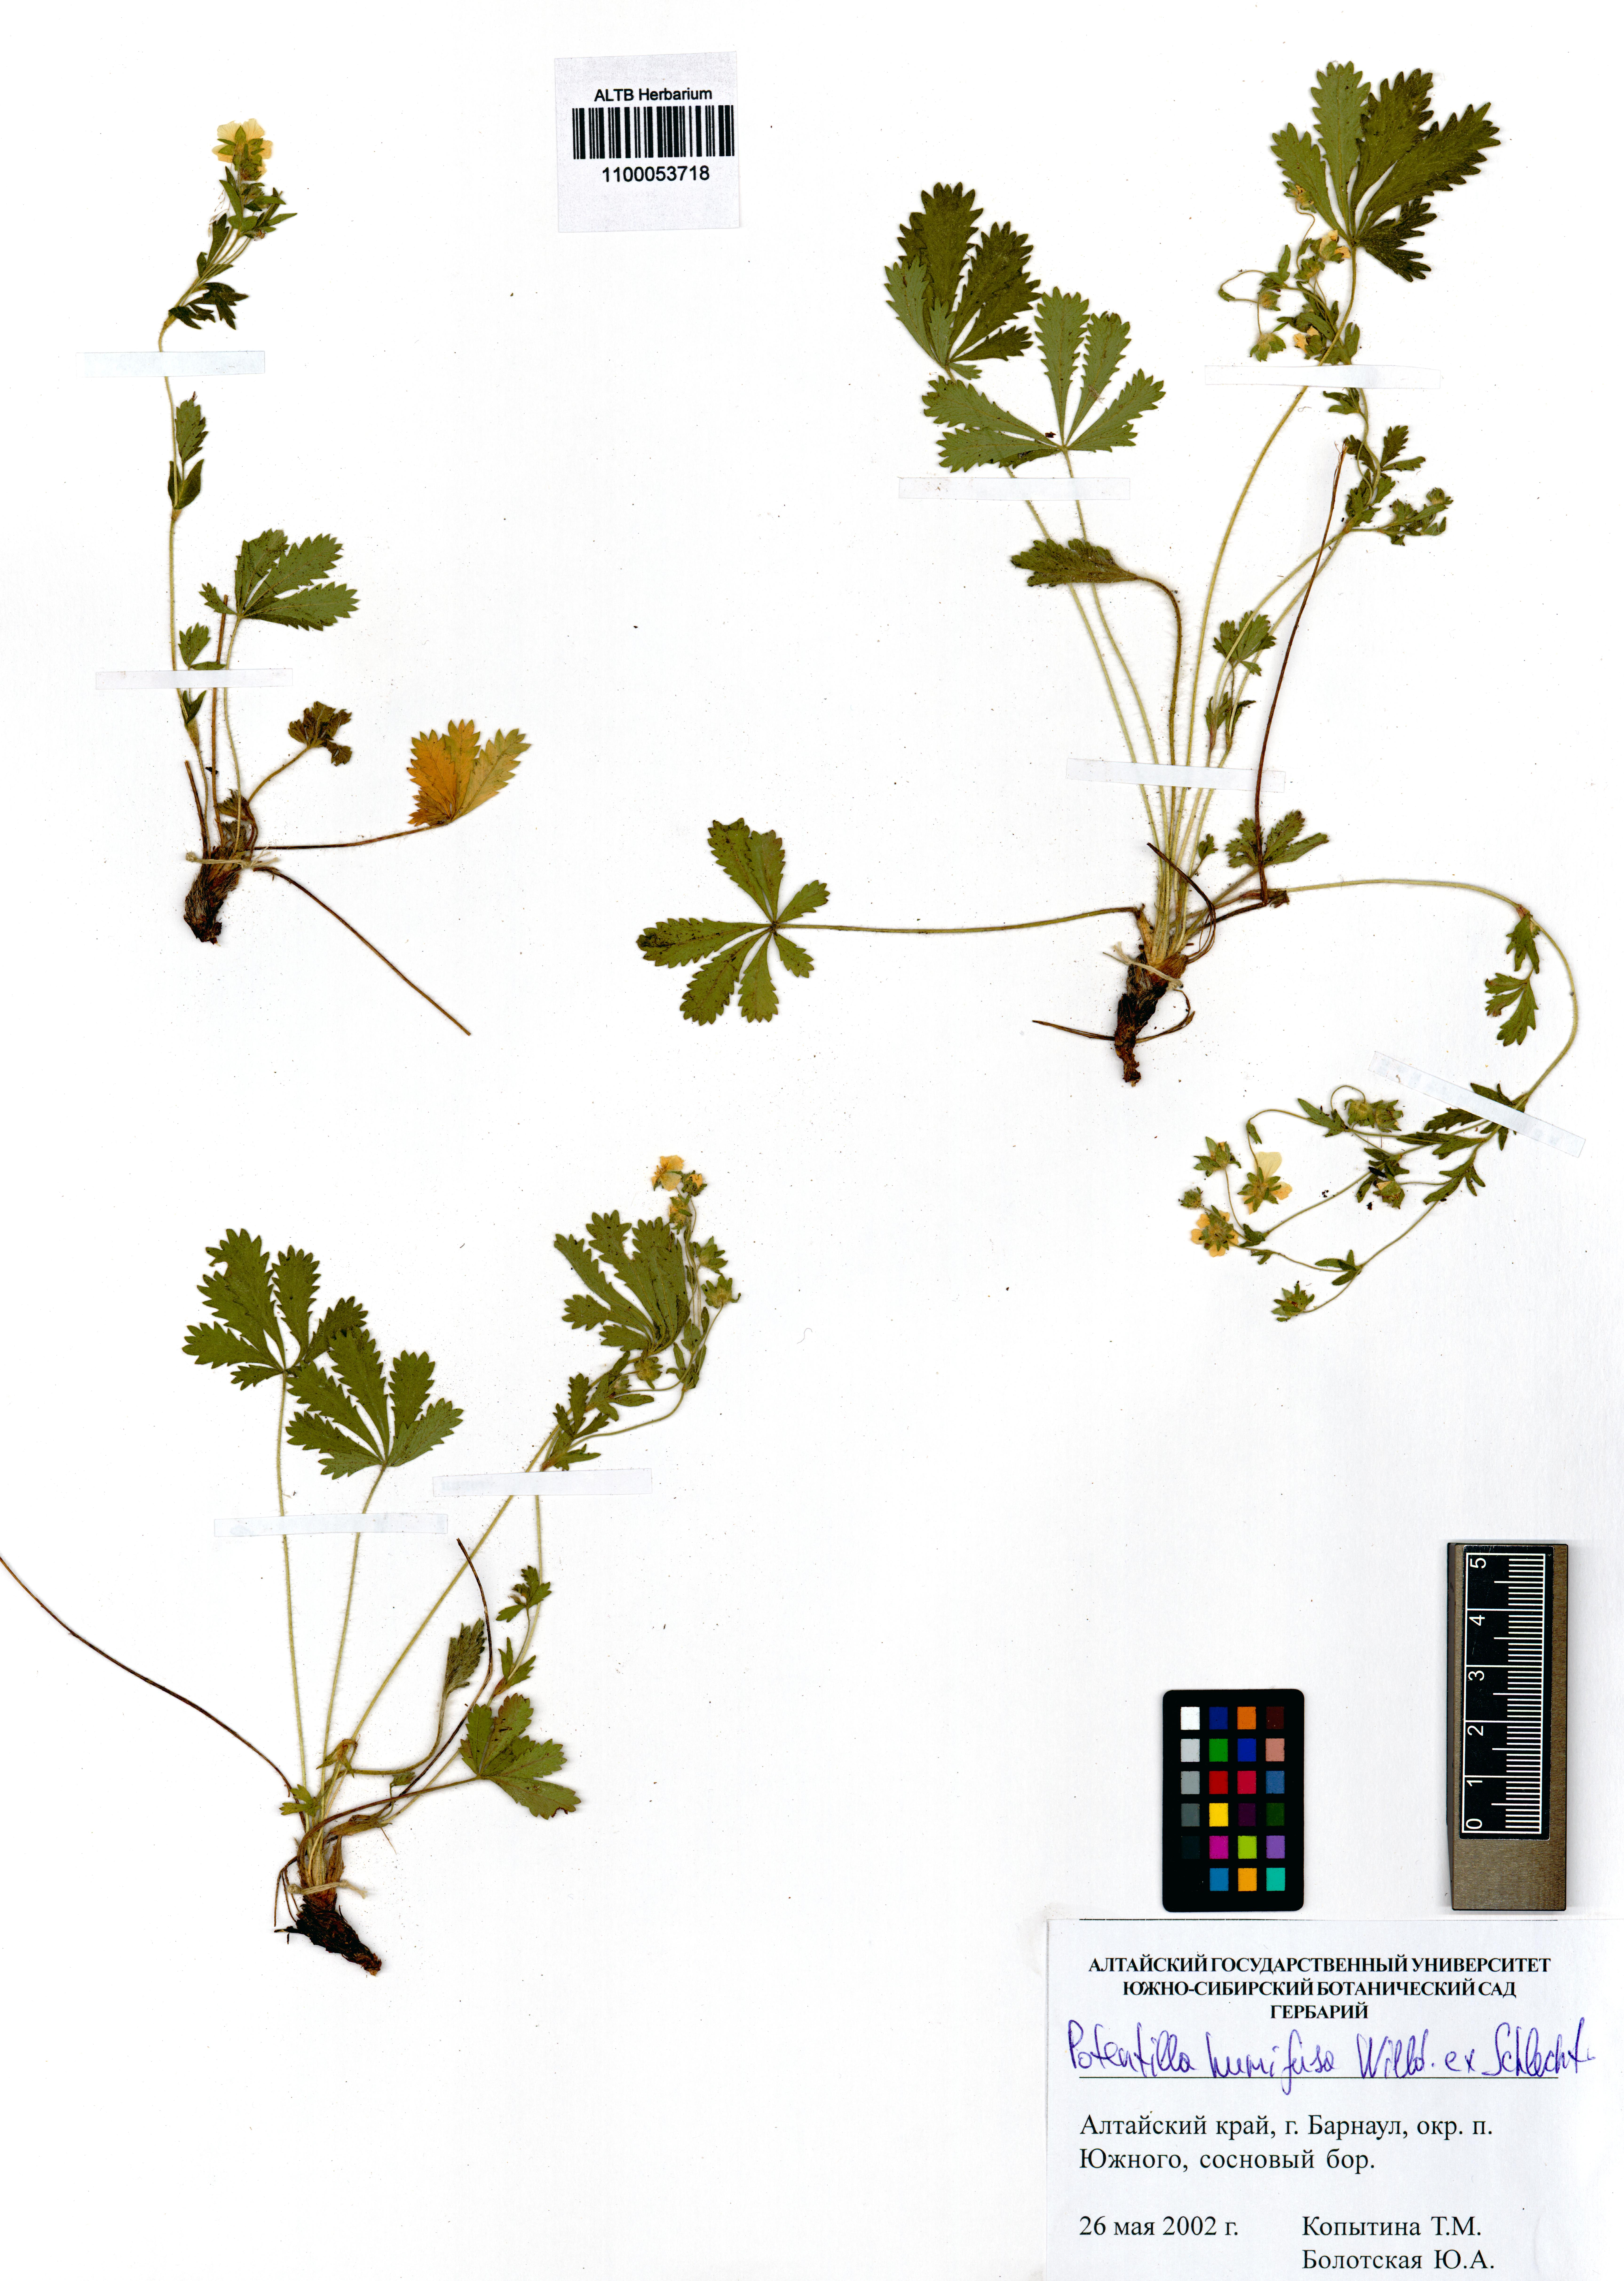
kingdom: Plantae
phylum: Tracheophyta
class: Magnoliopsida
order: Rosales
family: Rosaceae
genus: Potentilla
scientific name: Potentilla humifusa
